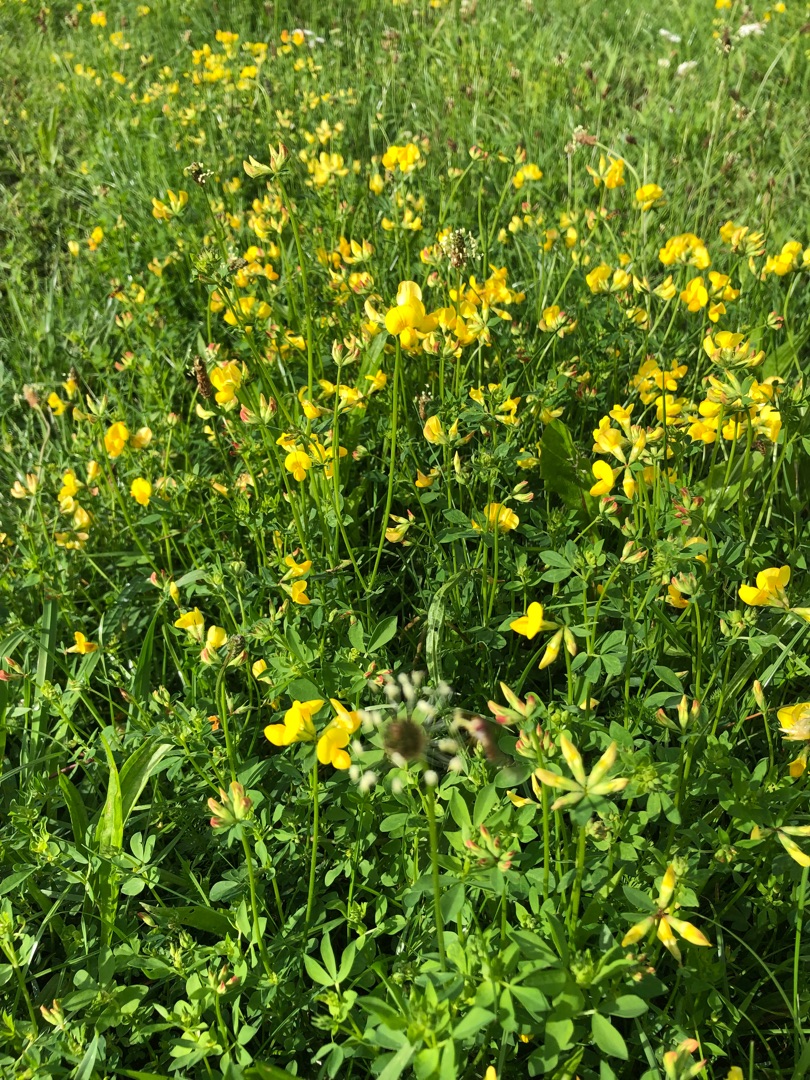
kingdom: Plantae
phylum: Tracheophyta
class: Magnoliopsida
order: Fabales
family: Fabaceae
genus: Lotus
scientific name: Lotus corniculatus
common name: Almindelig kællingetand
